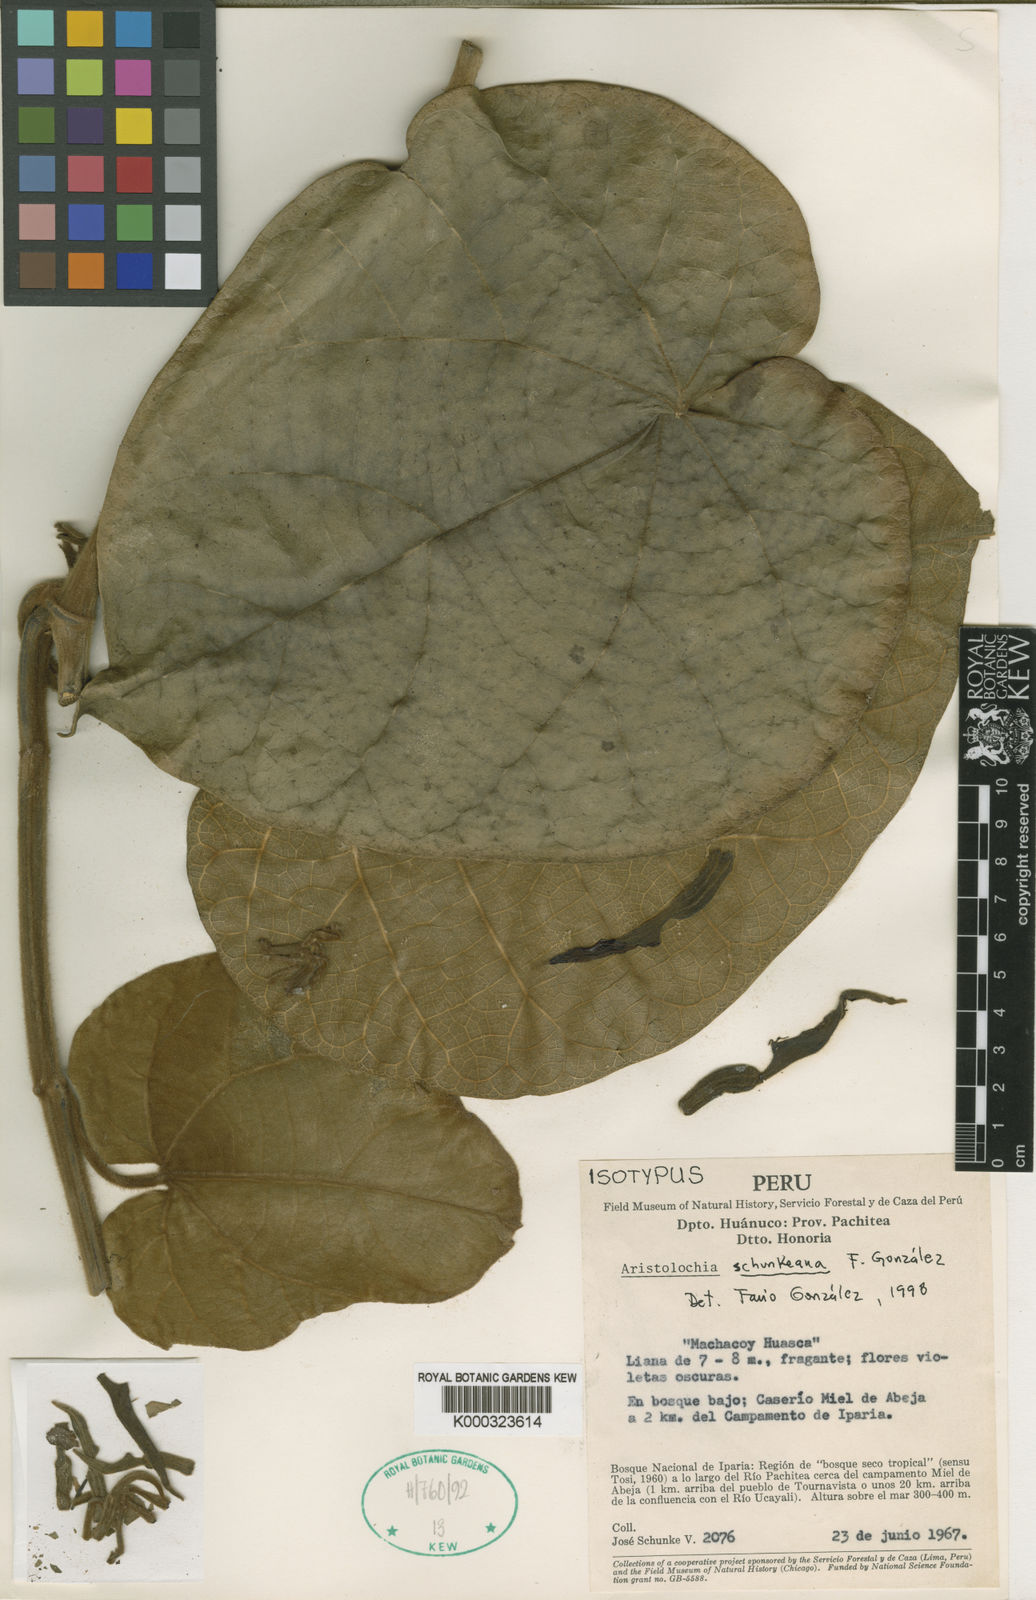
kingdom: Plantae
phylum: Tracheophyta
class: Magnoliopsida
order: Piperales
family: Aristolochiaceae
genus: Aristolochia
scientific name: Aristolochia
